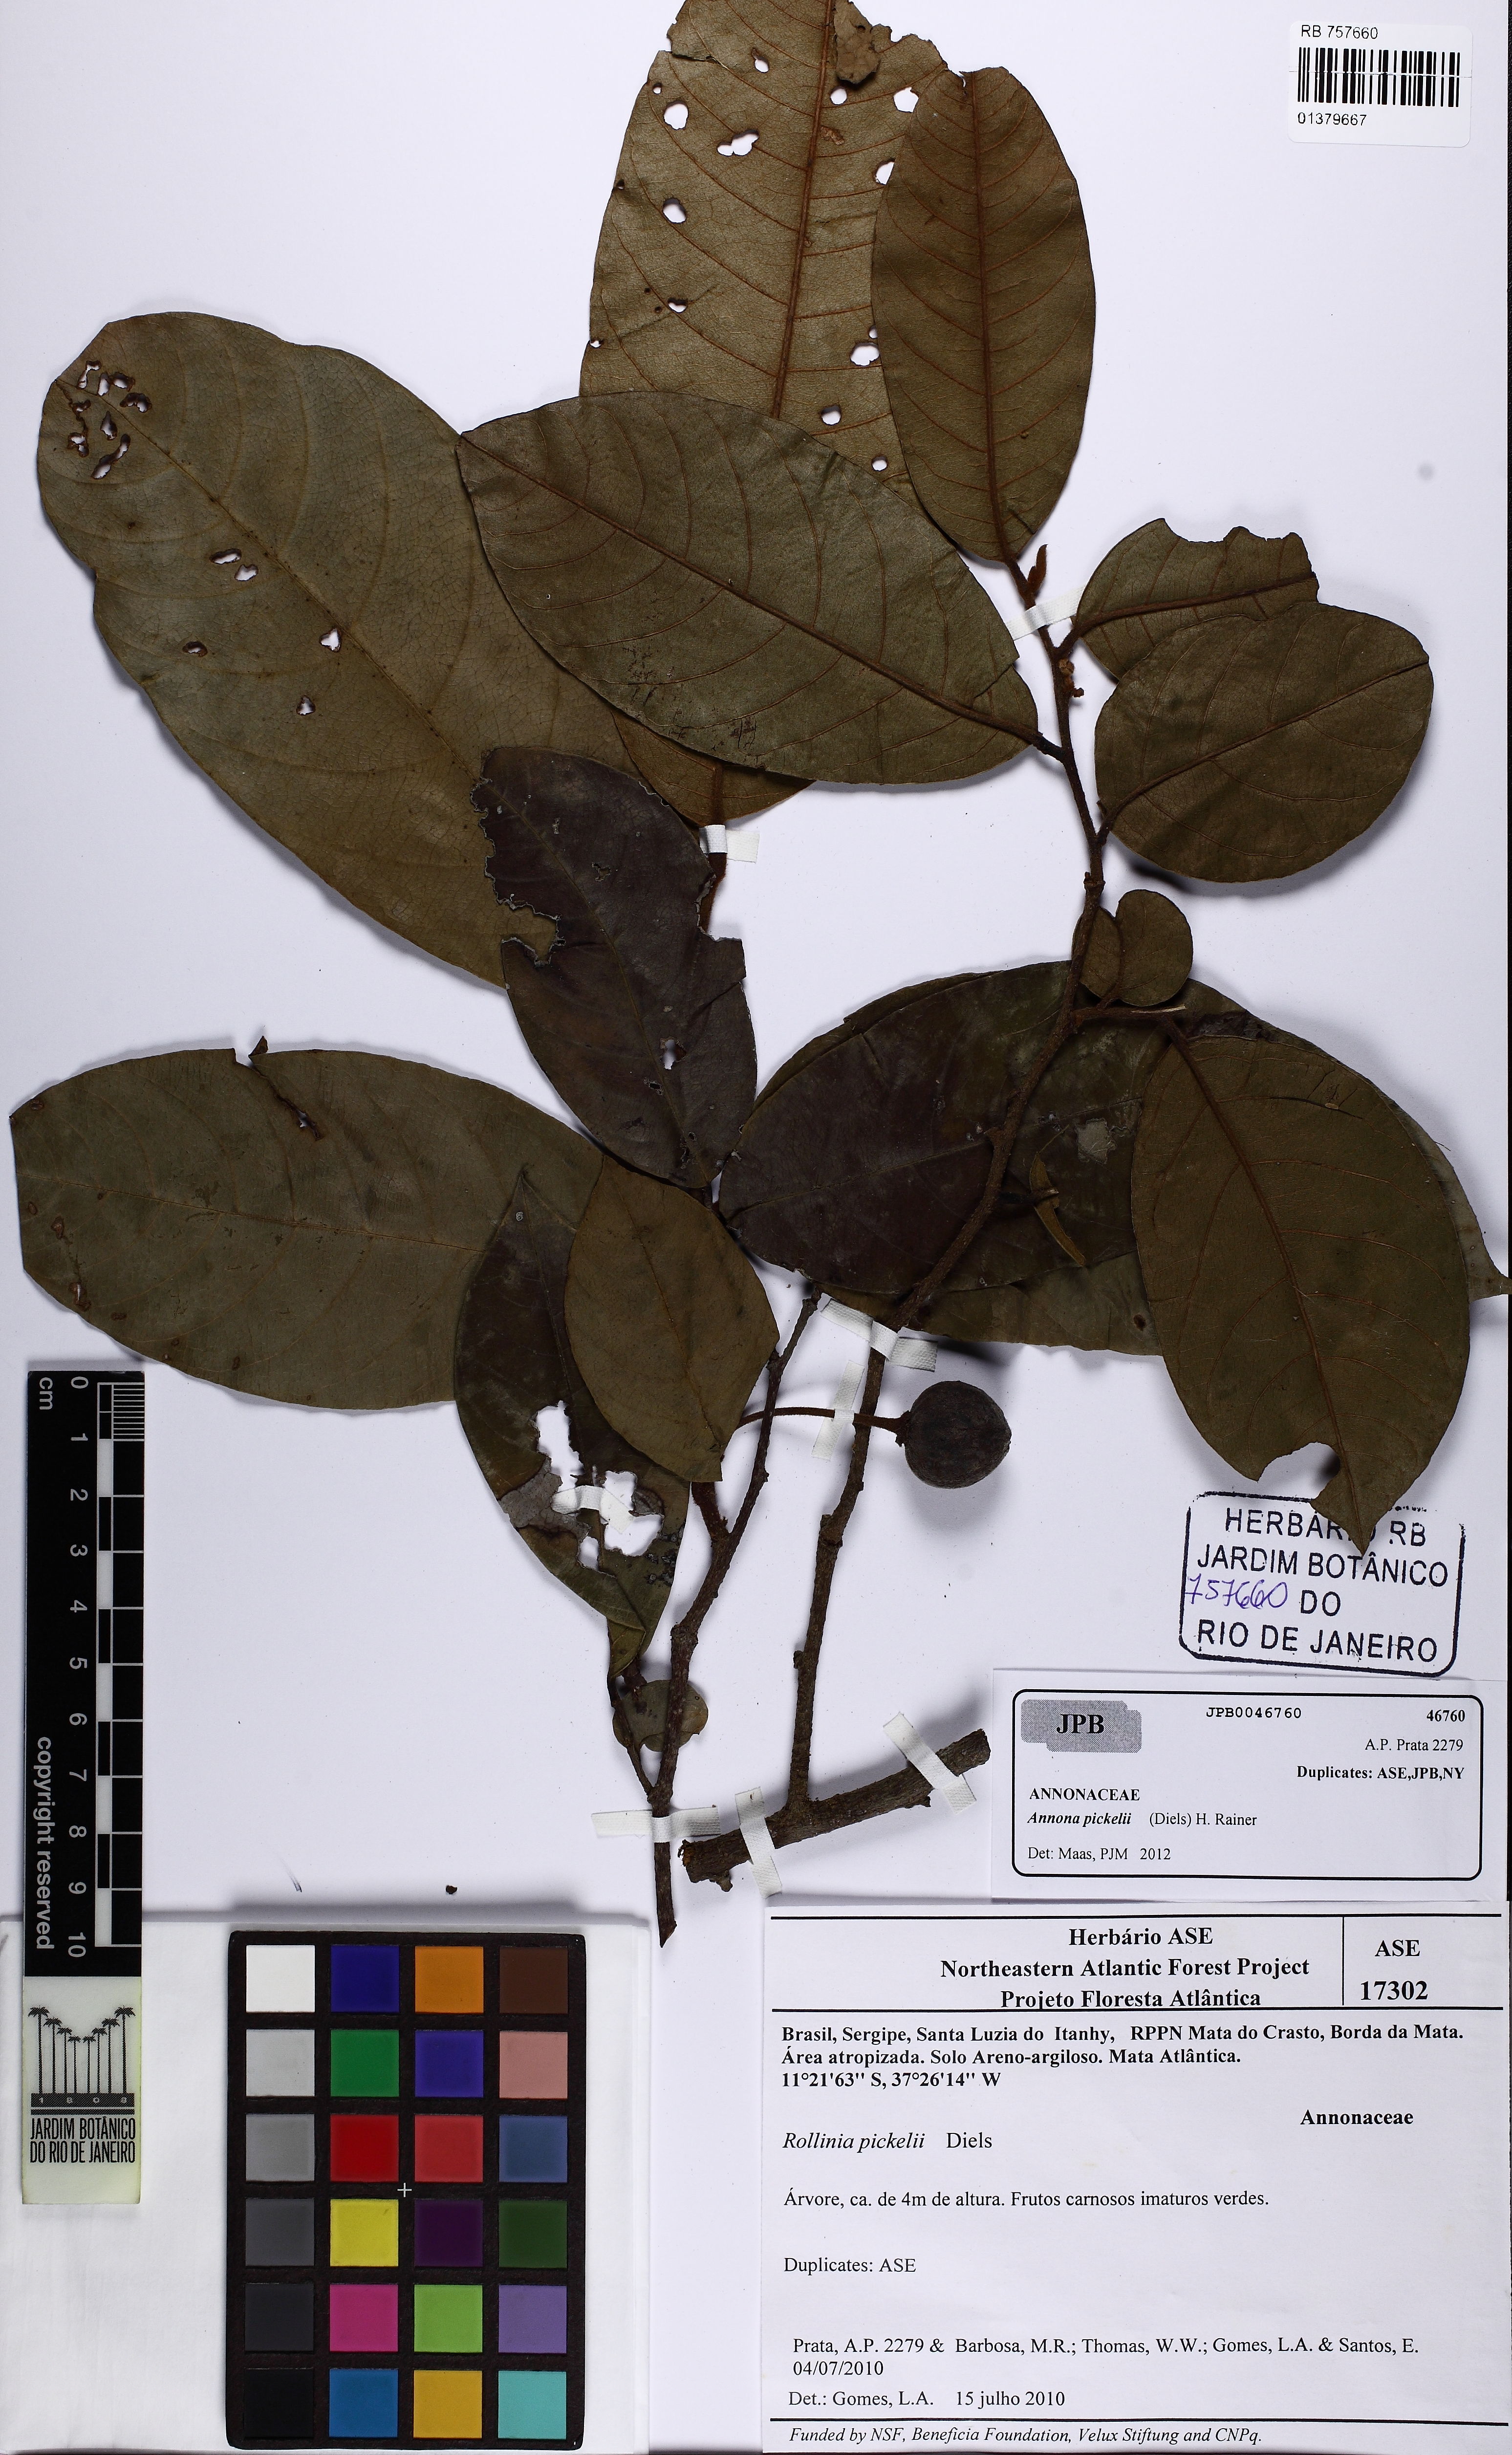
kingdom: Plantae
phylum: Tracheophyta
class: Magnoliopsida
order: Magnoliales
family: Annonaceae
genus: Annona
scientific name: Annona papilionella
